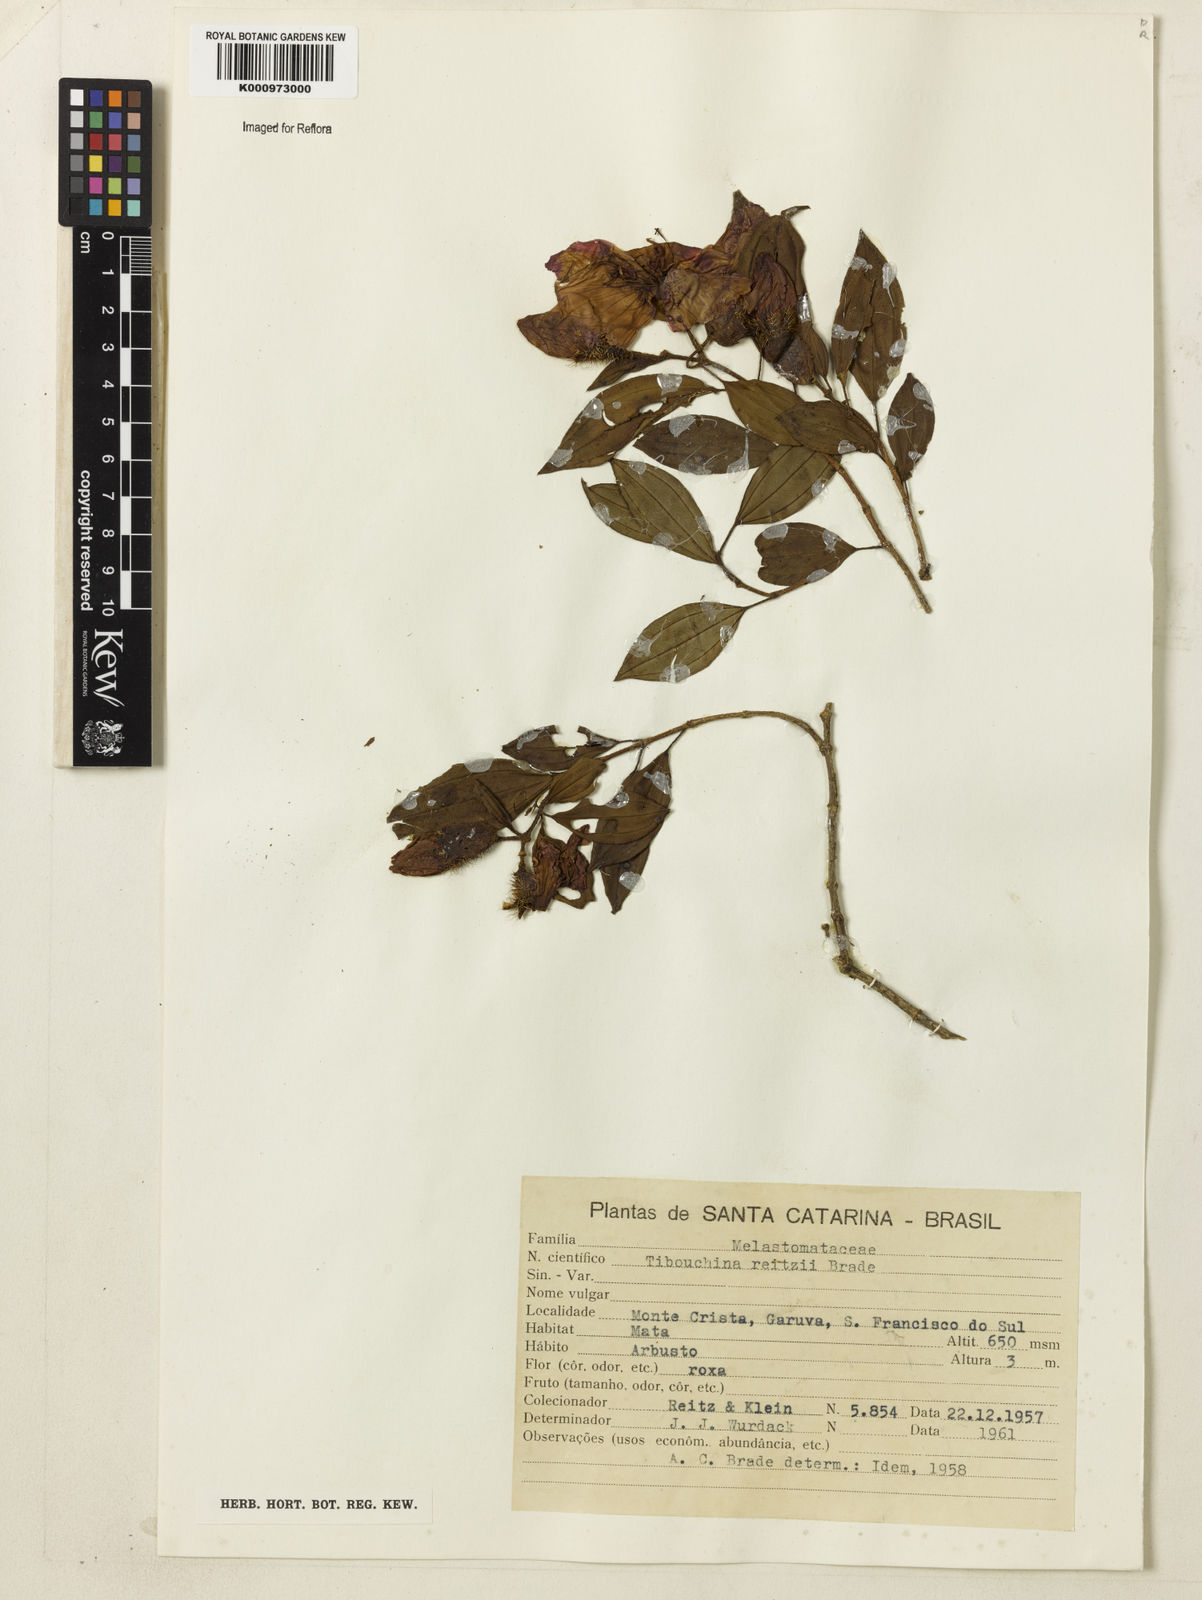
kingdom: Plantae
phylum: Tracheophyta
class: Magnoliopsida
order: Myrtales
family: Melastomataceae
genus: Pleroma
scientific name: Pleroma reitzii
